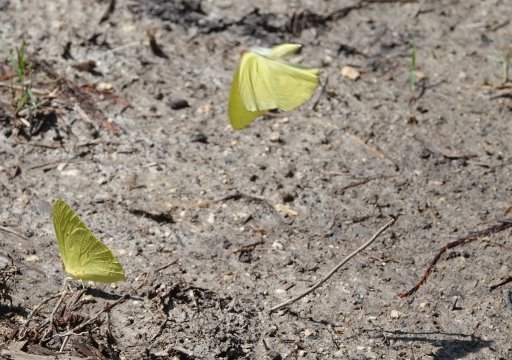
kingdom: Animalia
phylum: Arthropoda
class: Insecta
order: Lepidoptera
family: Pieridae
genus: Phoebis
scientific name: Phoebis sennae
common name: Cloudless Sulphur
